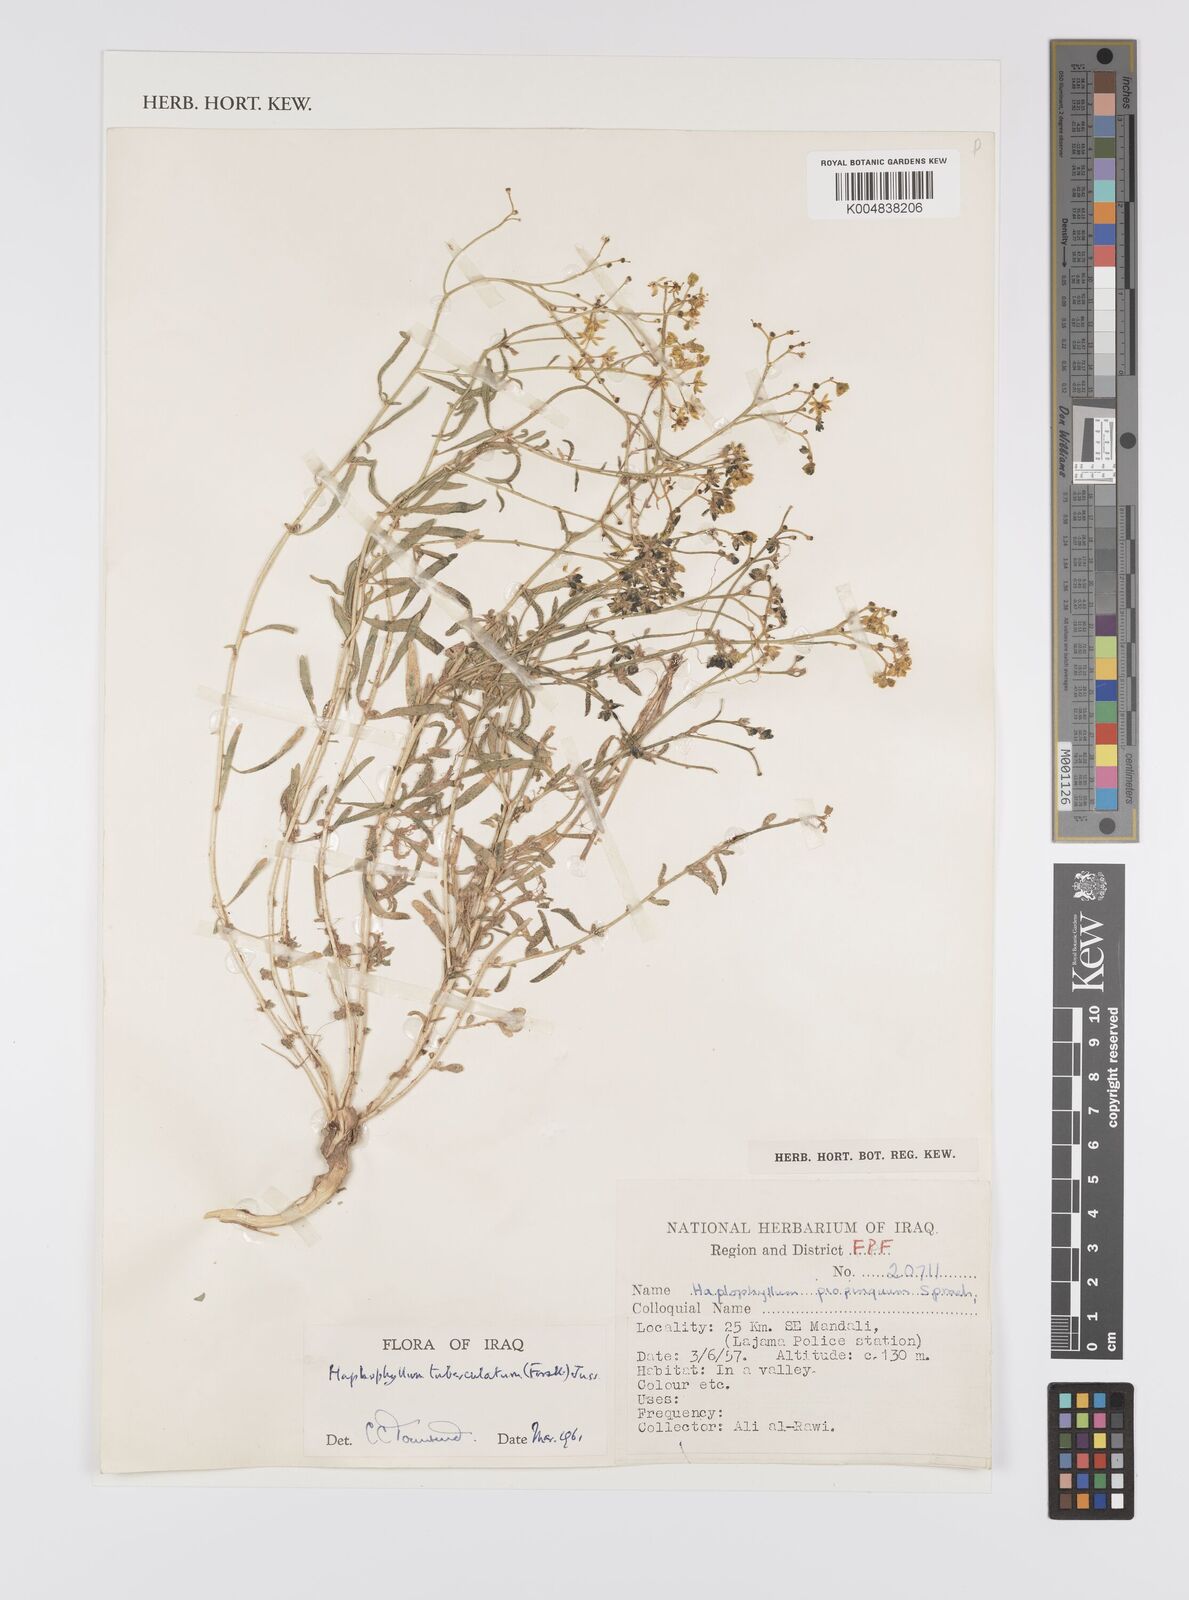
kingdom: Plantae
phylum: Tracheophyta
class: Magnoliopsida
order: Sapindales
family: Rutaceae
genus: Haplophyllum
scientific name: Haplophyllum tuberculatum
